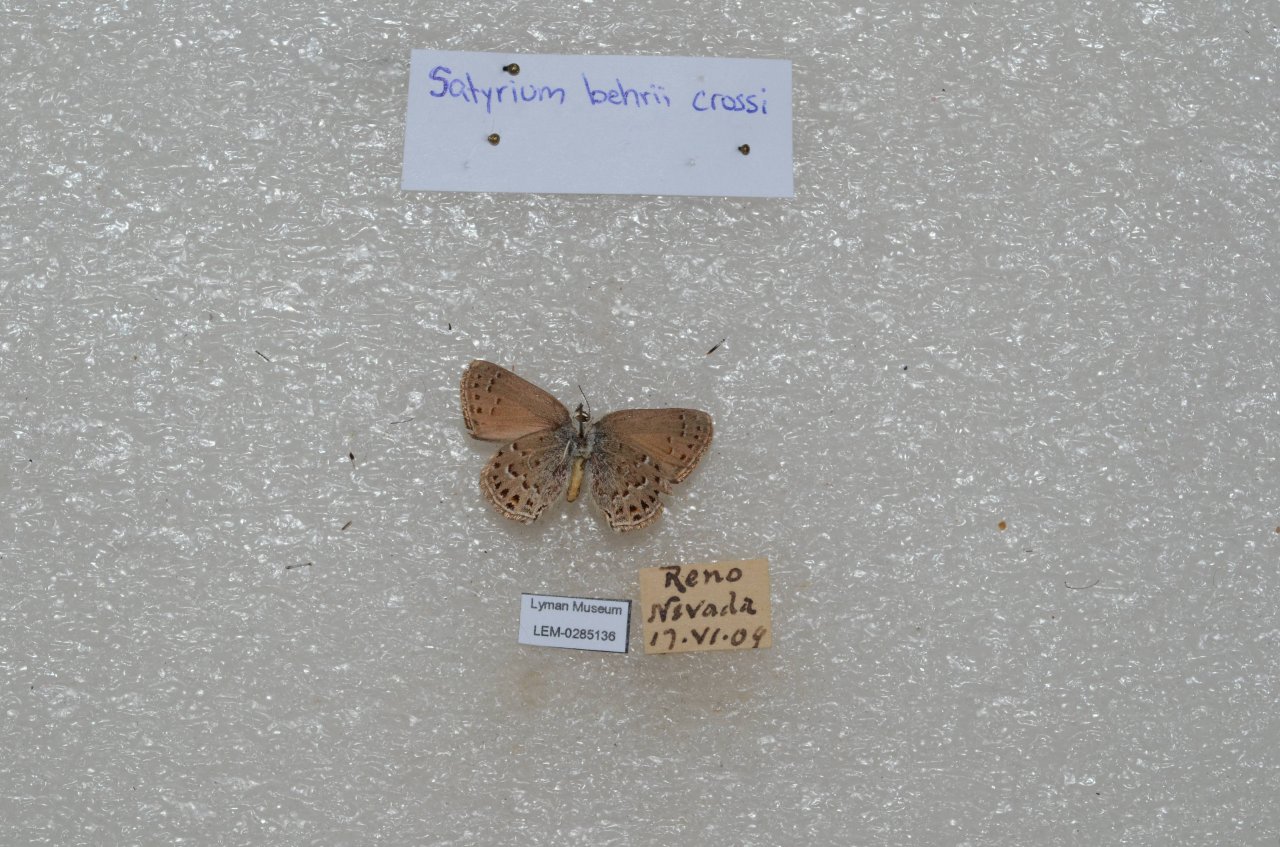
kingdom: Animalia
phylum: Arthropoda
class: Insecta
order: Lepidoptera
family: Lycaenidae
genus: Satyrium
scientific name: Satyrium behrii
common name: Behr's Hairstreak
